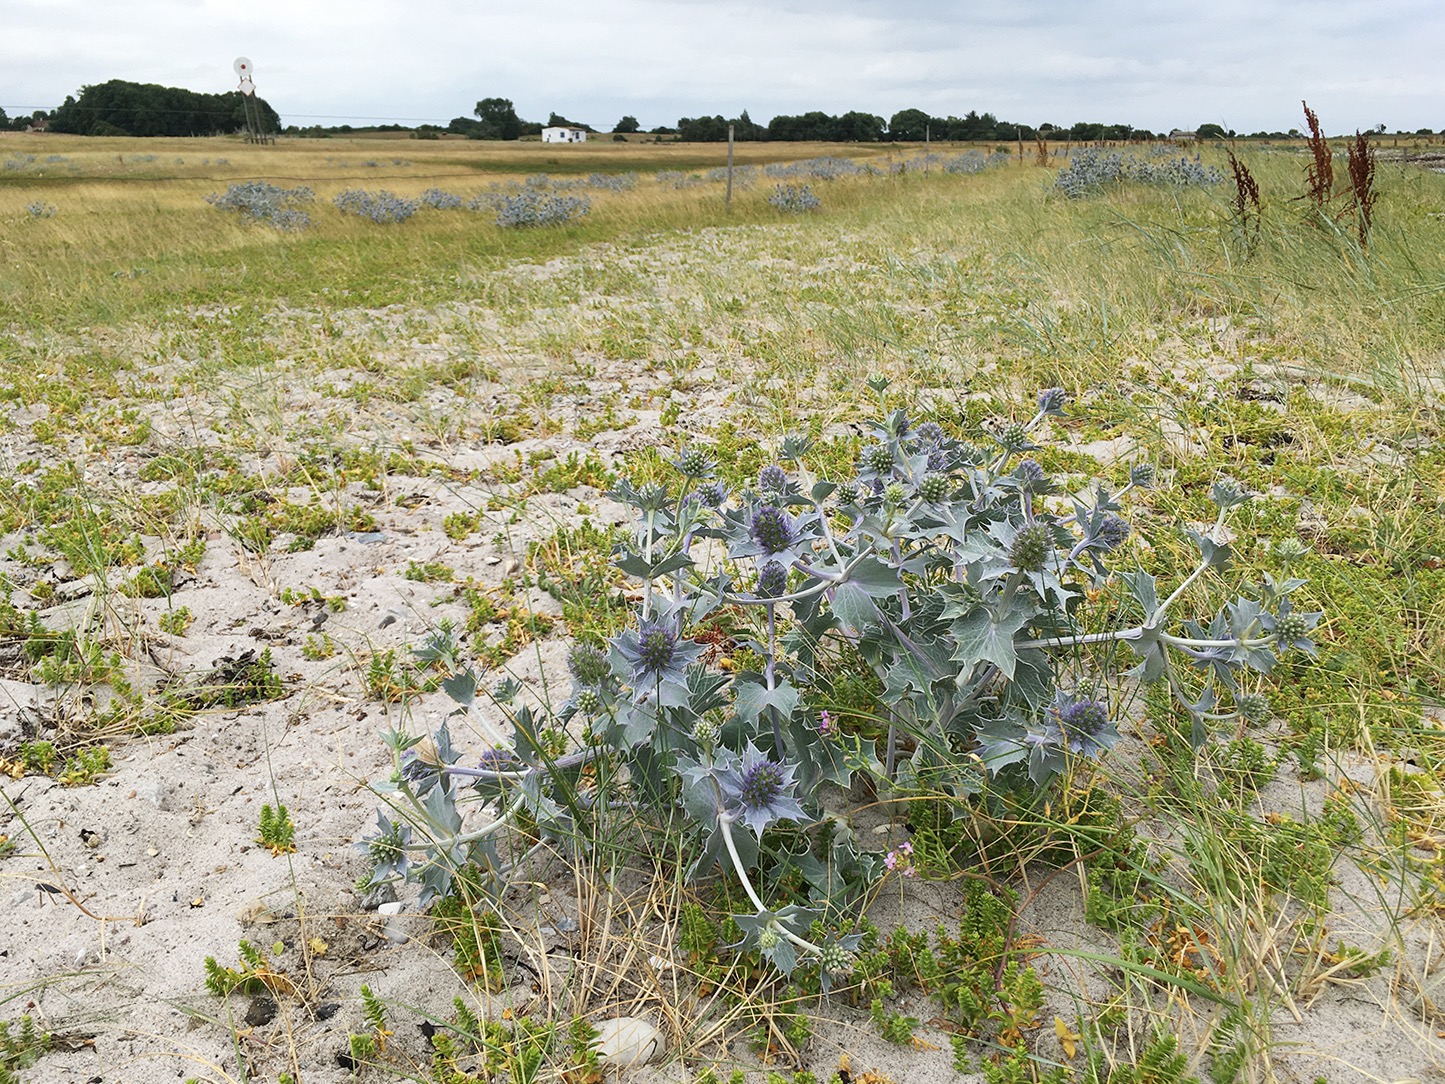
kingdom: Plantae
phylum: Tracheophyta
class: Magnoliopsida
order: Apiales
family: Apiaceae
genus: Eryngium
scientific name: Eryngium maritimum
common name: Strand-mandstro
